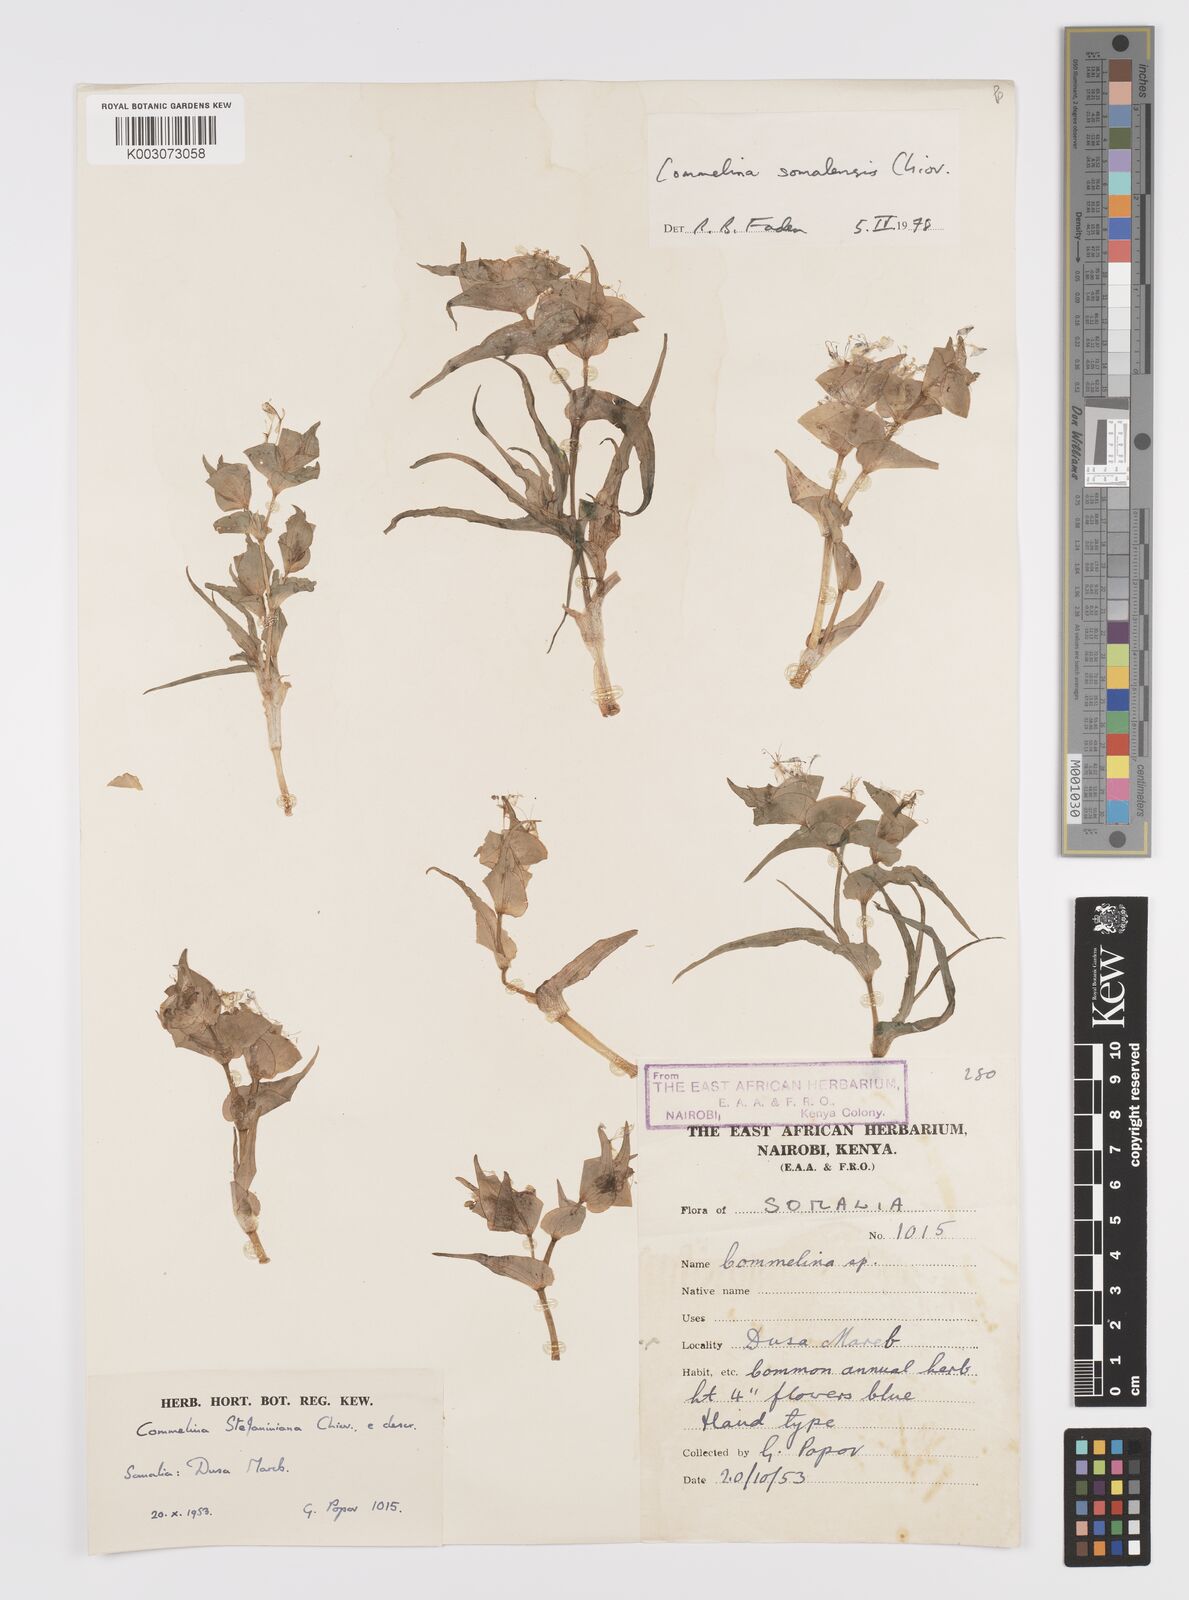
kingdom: Plantae
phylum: Tracheophyta
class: Liliopsida
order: Commelinales
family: Commelinaceae
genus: Commelina
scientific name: Commelina somalensis
